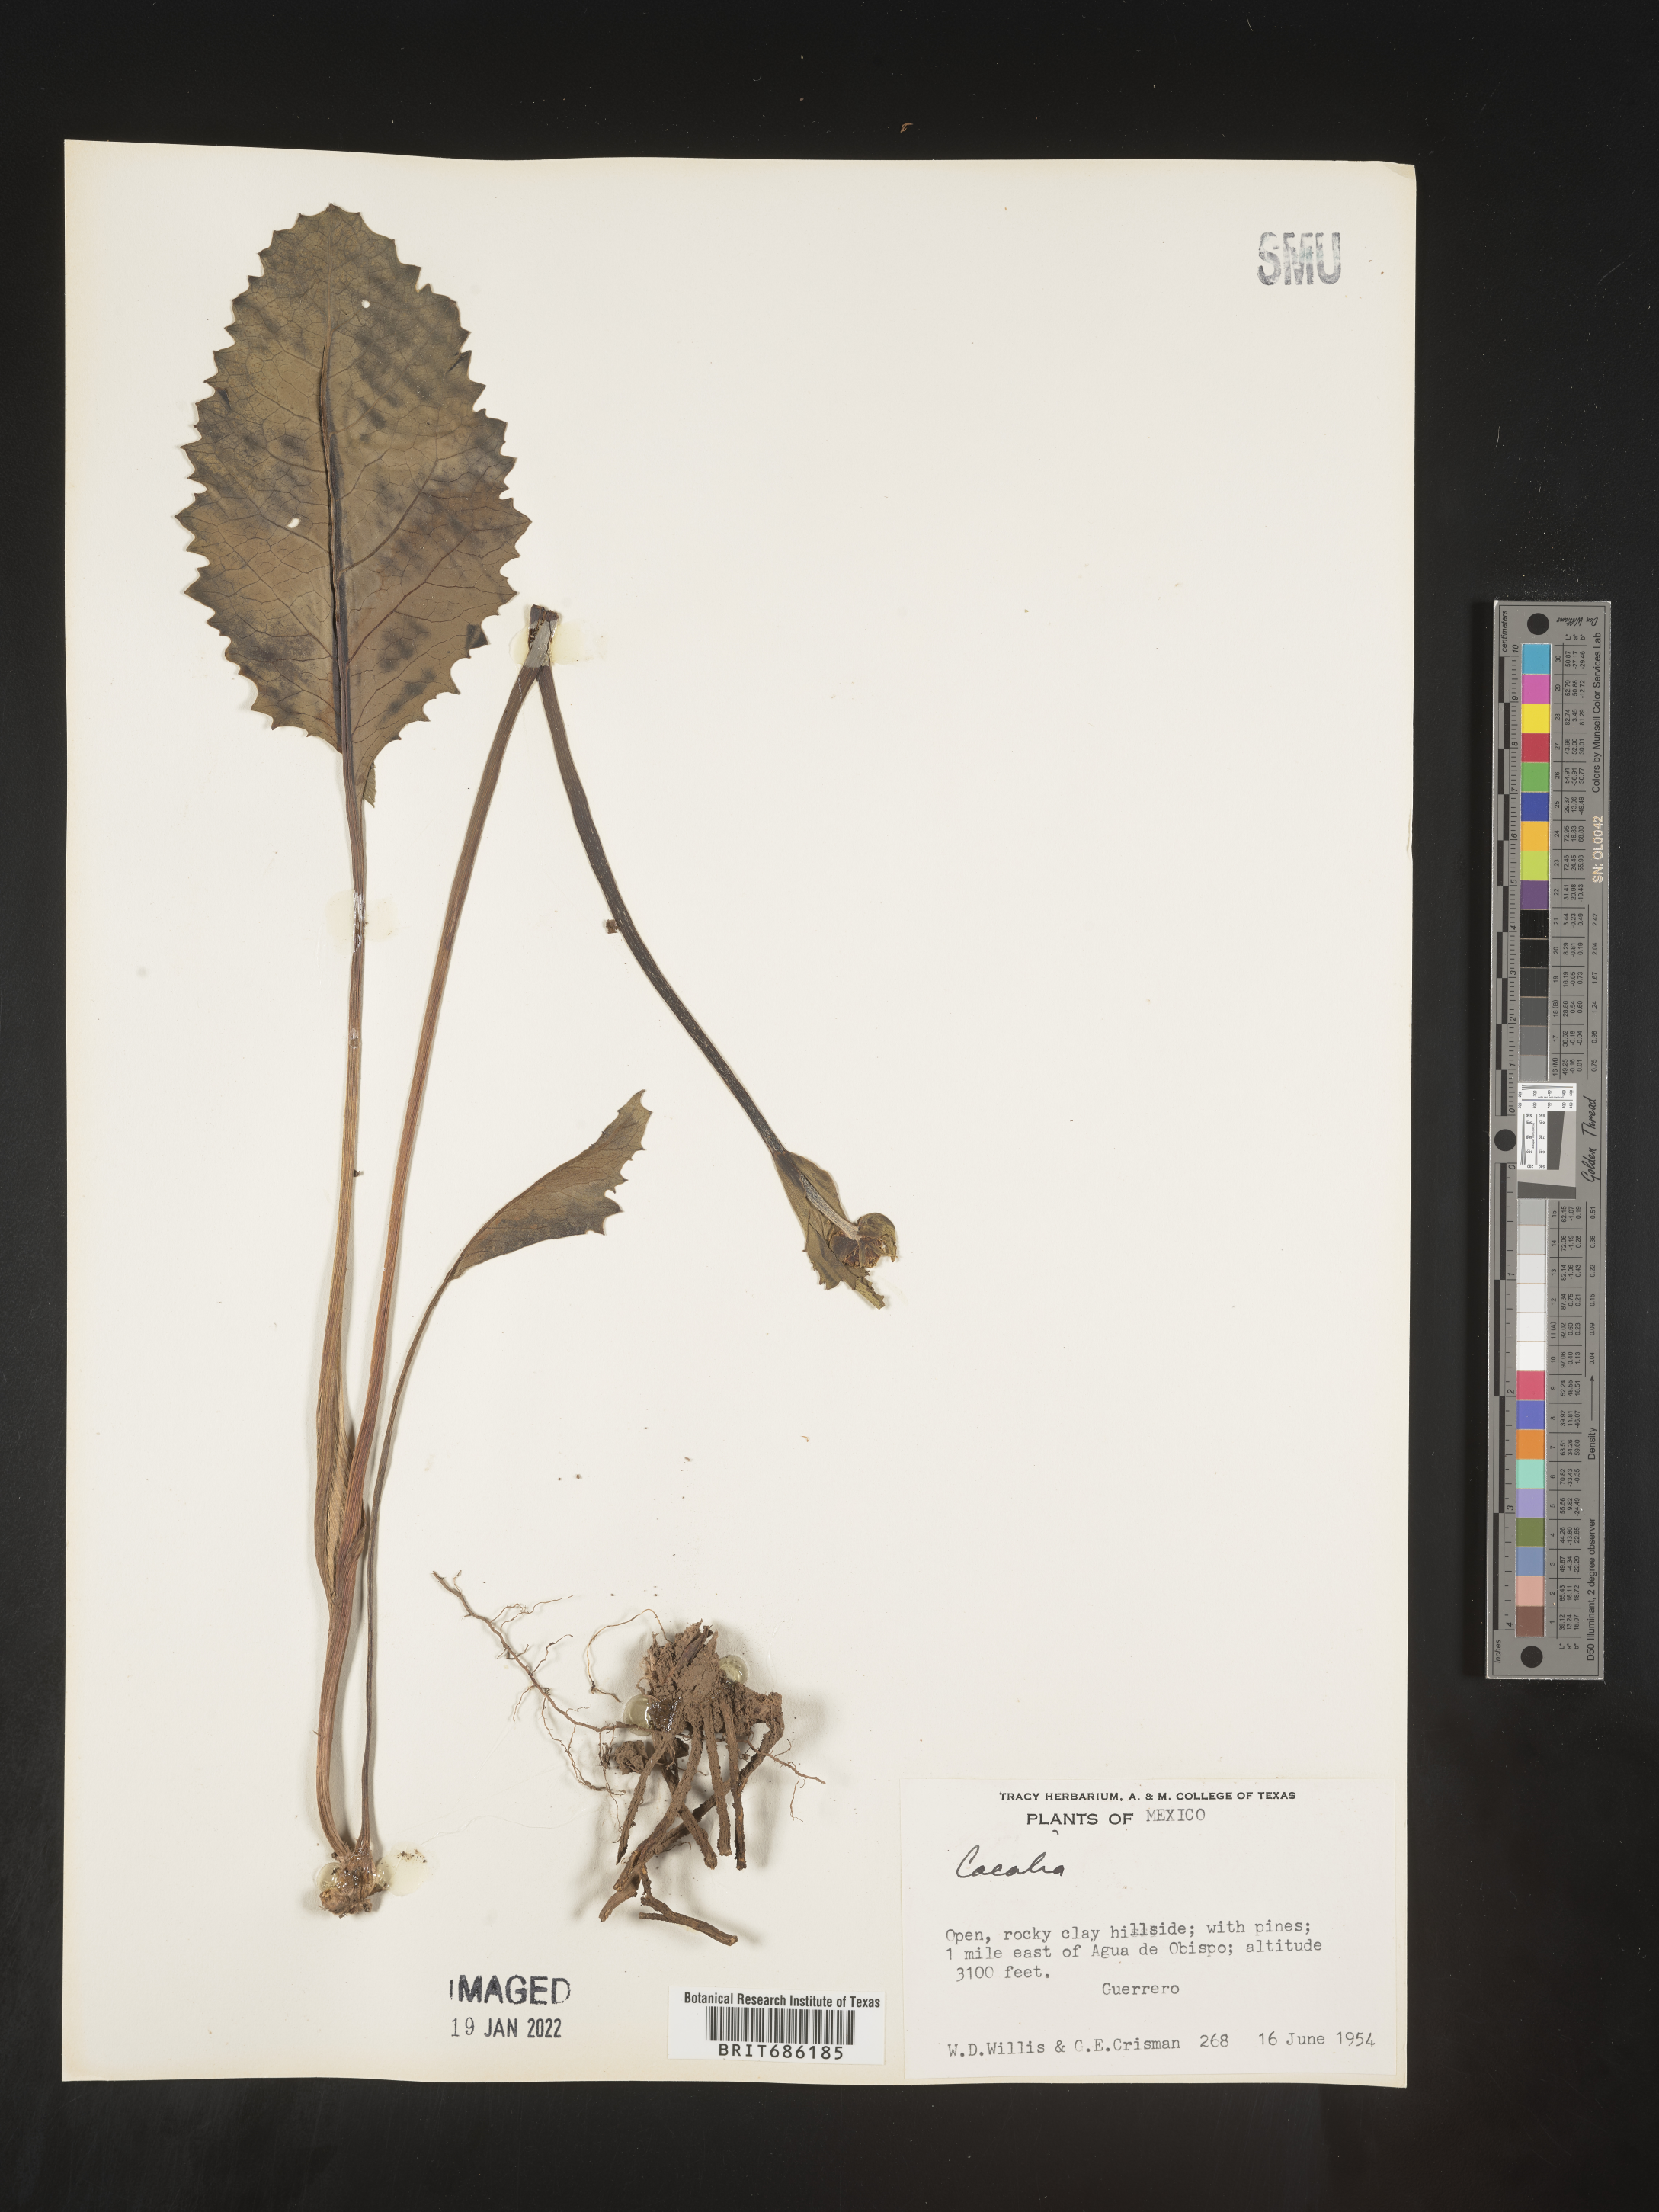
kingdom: Plantae
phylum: Tracheophyta
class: Magnoliopsida
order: Asterales
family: Asteraceae
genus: Cacalia
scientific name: Cacalia
